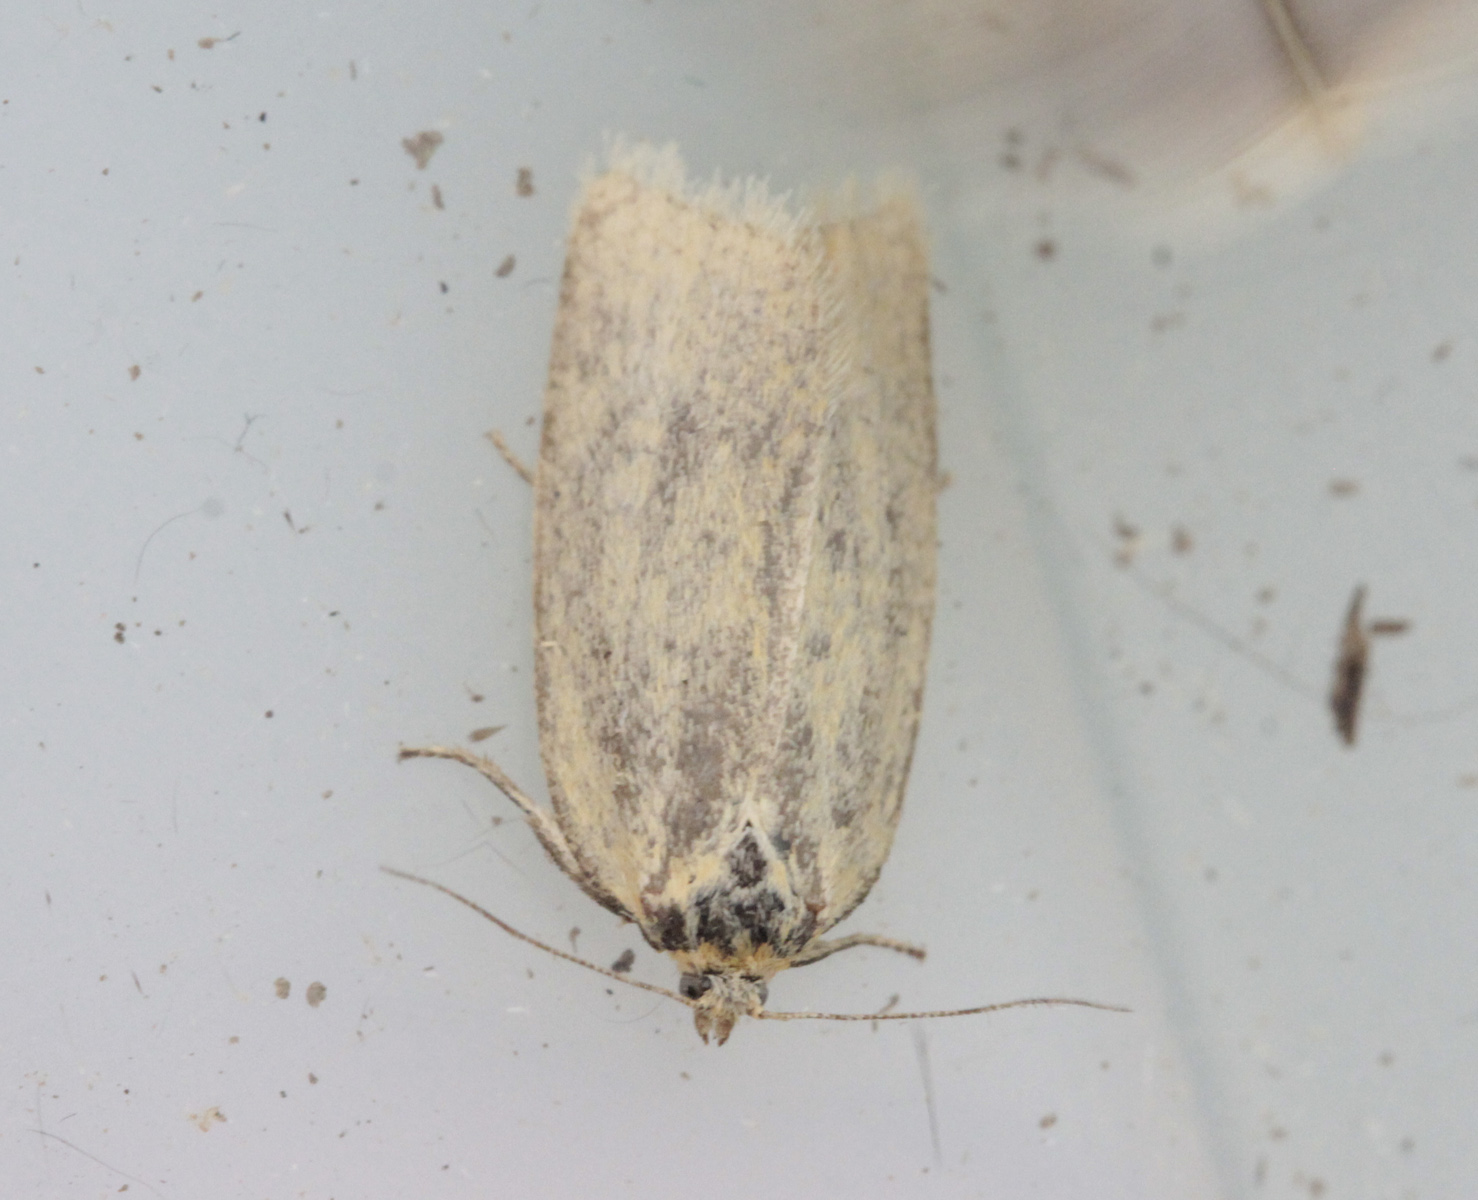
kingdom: Animalia
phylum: Arthropoda
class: Insecta
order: Lepidoptera
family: Tortricidae
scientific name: Tortricidae
